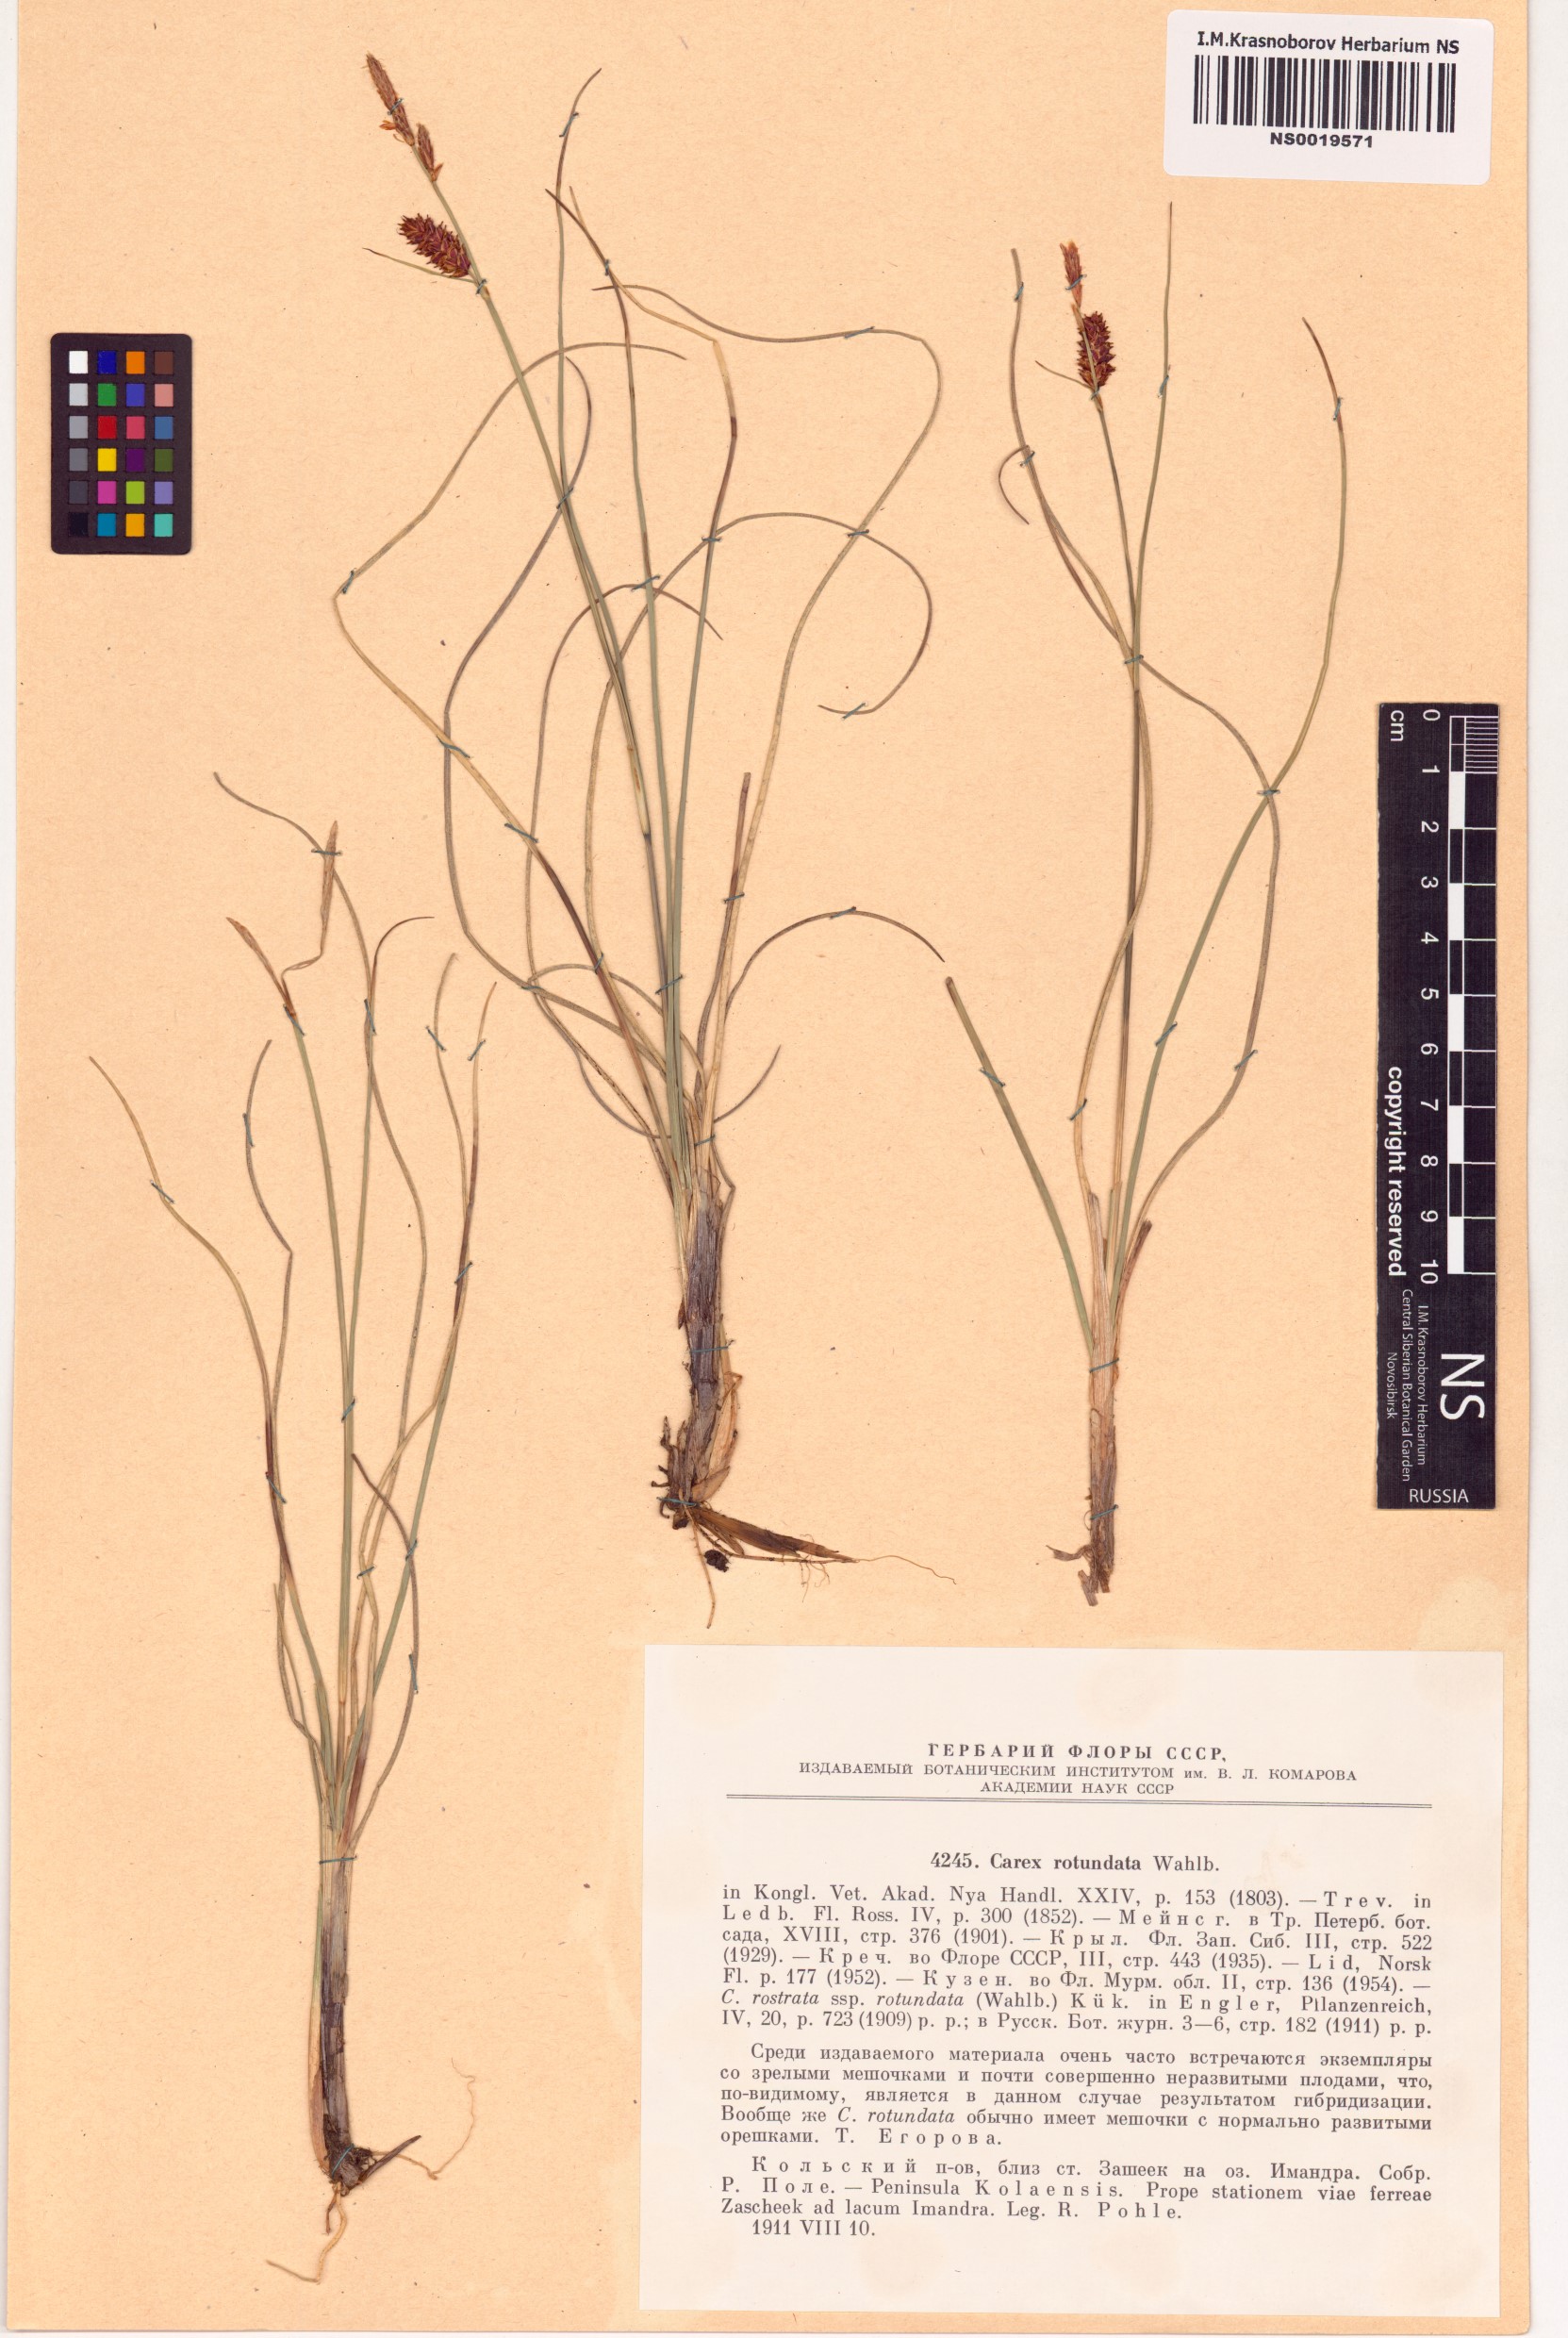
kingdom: Plantae
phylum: Tracheophyta
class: Liliopsida
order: Poales
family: Cyperaceae
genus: Carex
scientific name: Carex rotundata
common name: Round-fruited sedge
